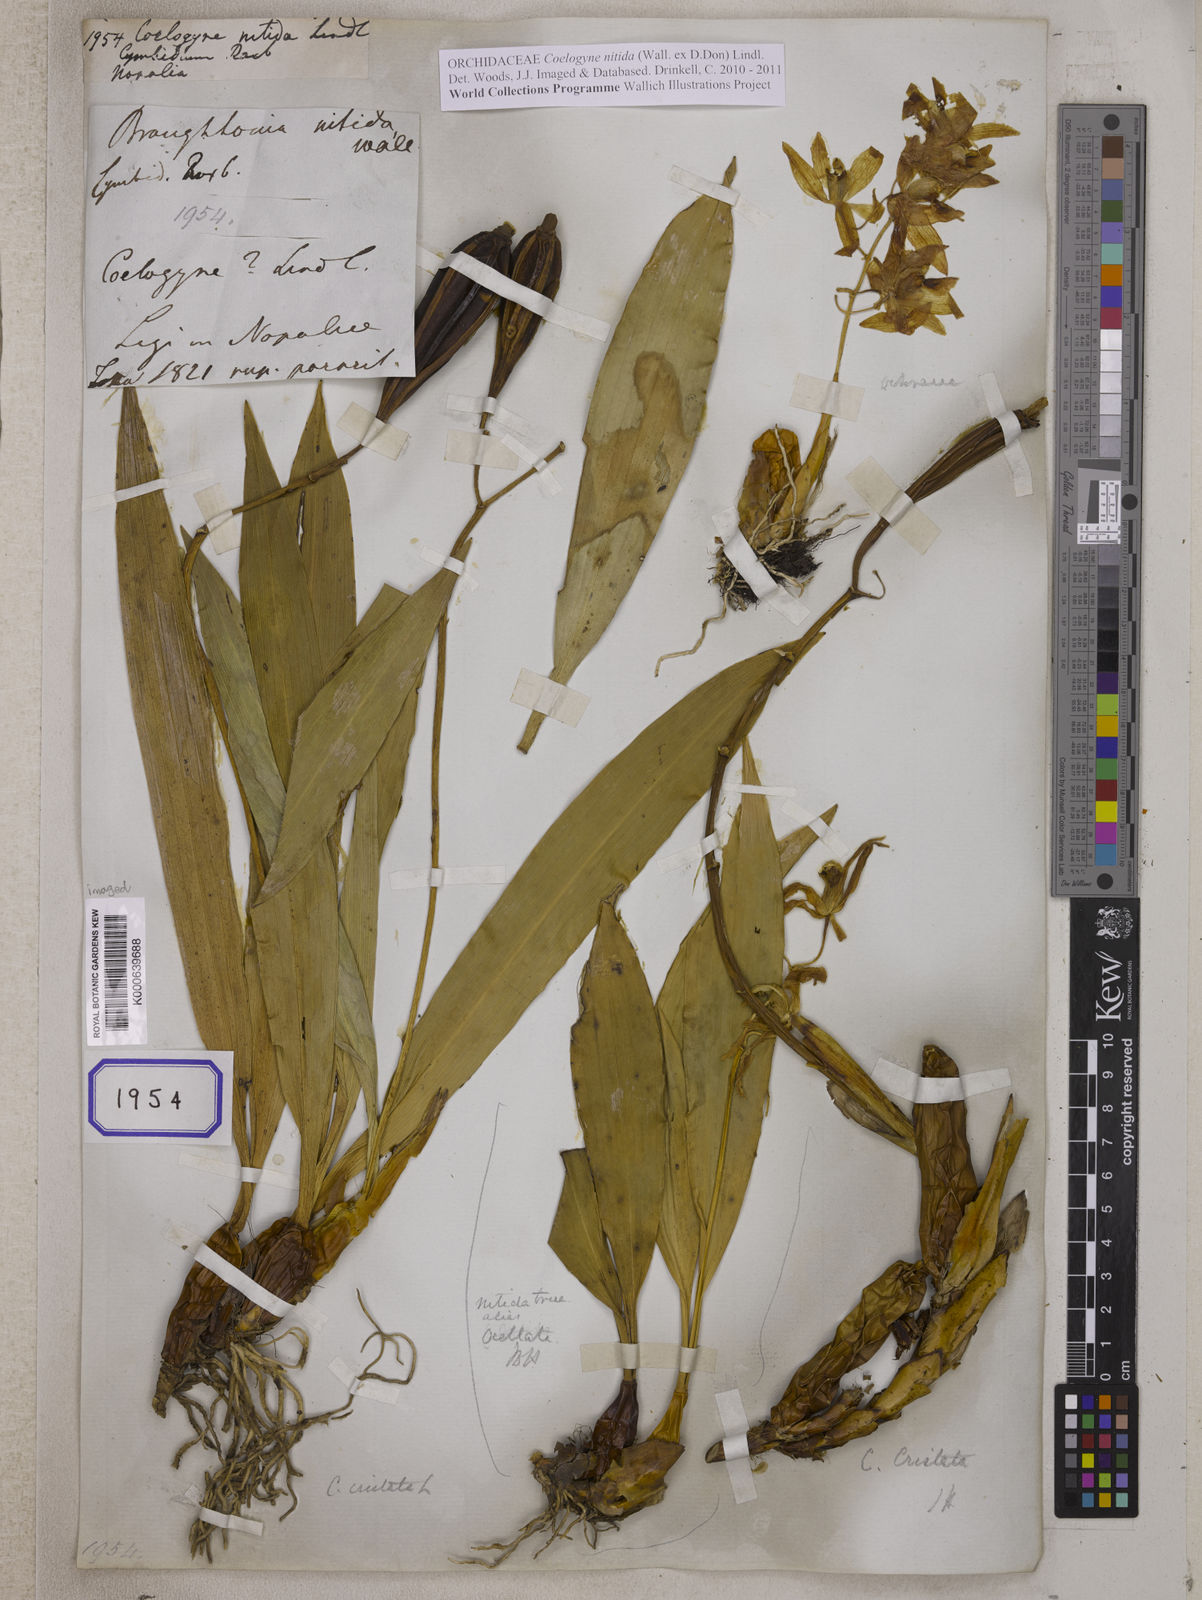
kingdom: Plantae
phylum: Tracheophyta
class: Liliopsida
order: Asparagales
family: Orchidaceae
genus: Coelogyne
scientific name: Coelogyne nitida
